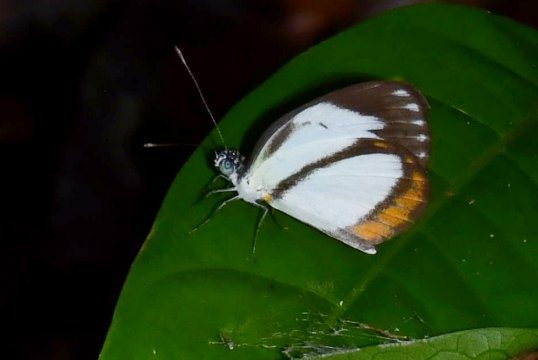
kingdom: Animalia
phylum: Arthropoda
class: Insecta
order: Lepidoptera
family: Pieridae
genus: Itaballia
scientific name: Itaballia pandosia
